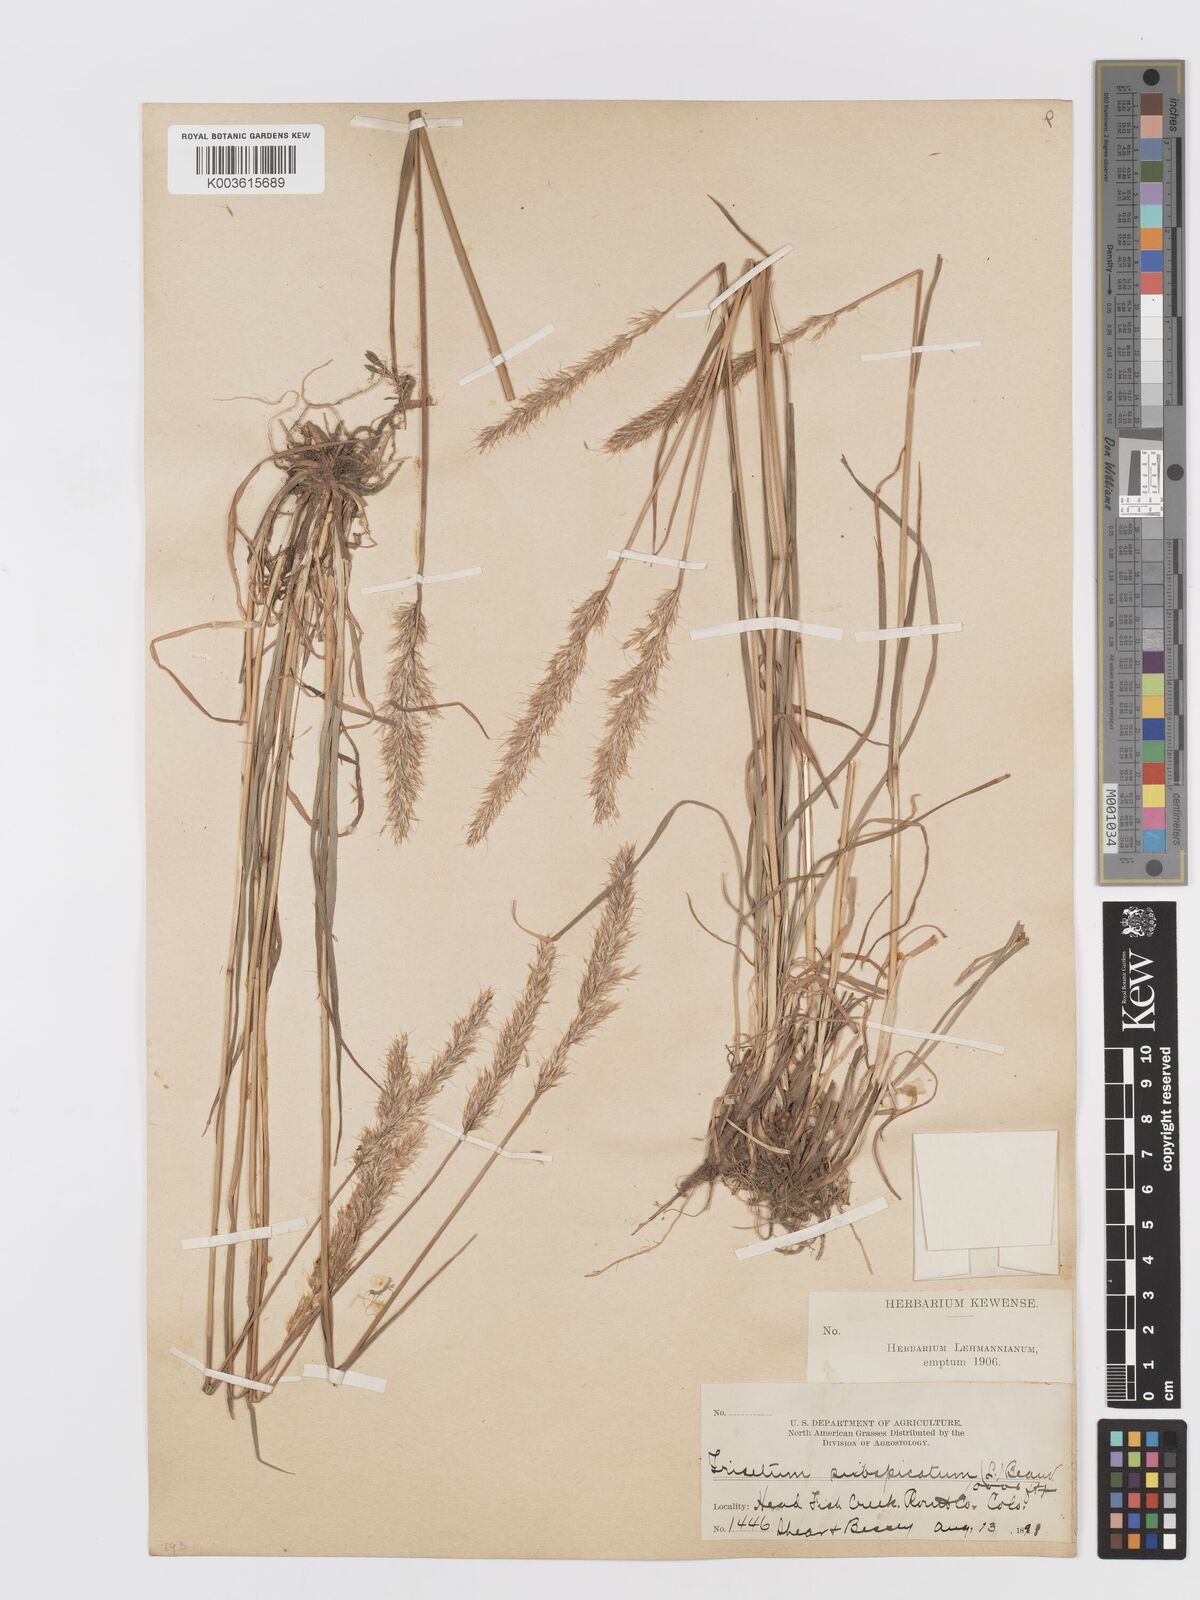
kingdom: Plantae
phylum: Tracheophyta
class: Liliopsida
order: Poales
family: Poaceae
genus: Koeleria
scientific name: Koeleria spicata
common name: Mountain trisetum
